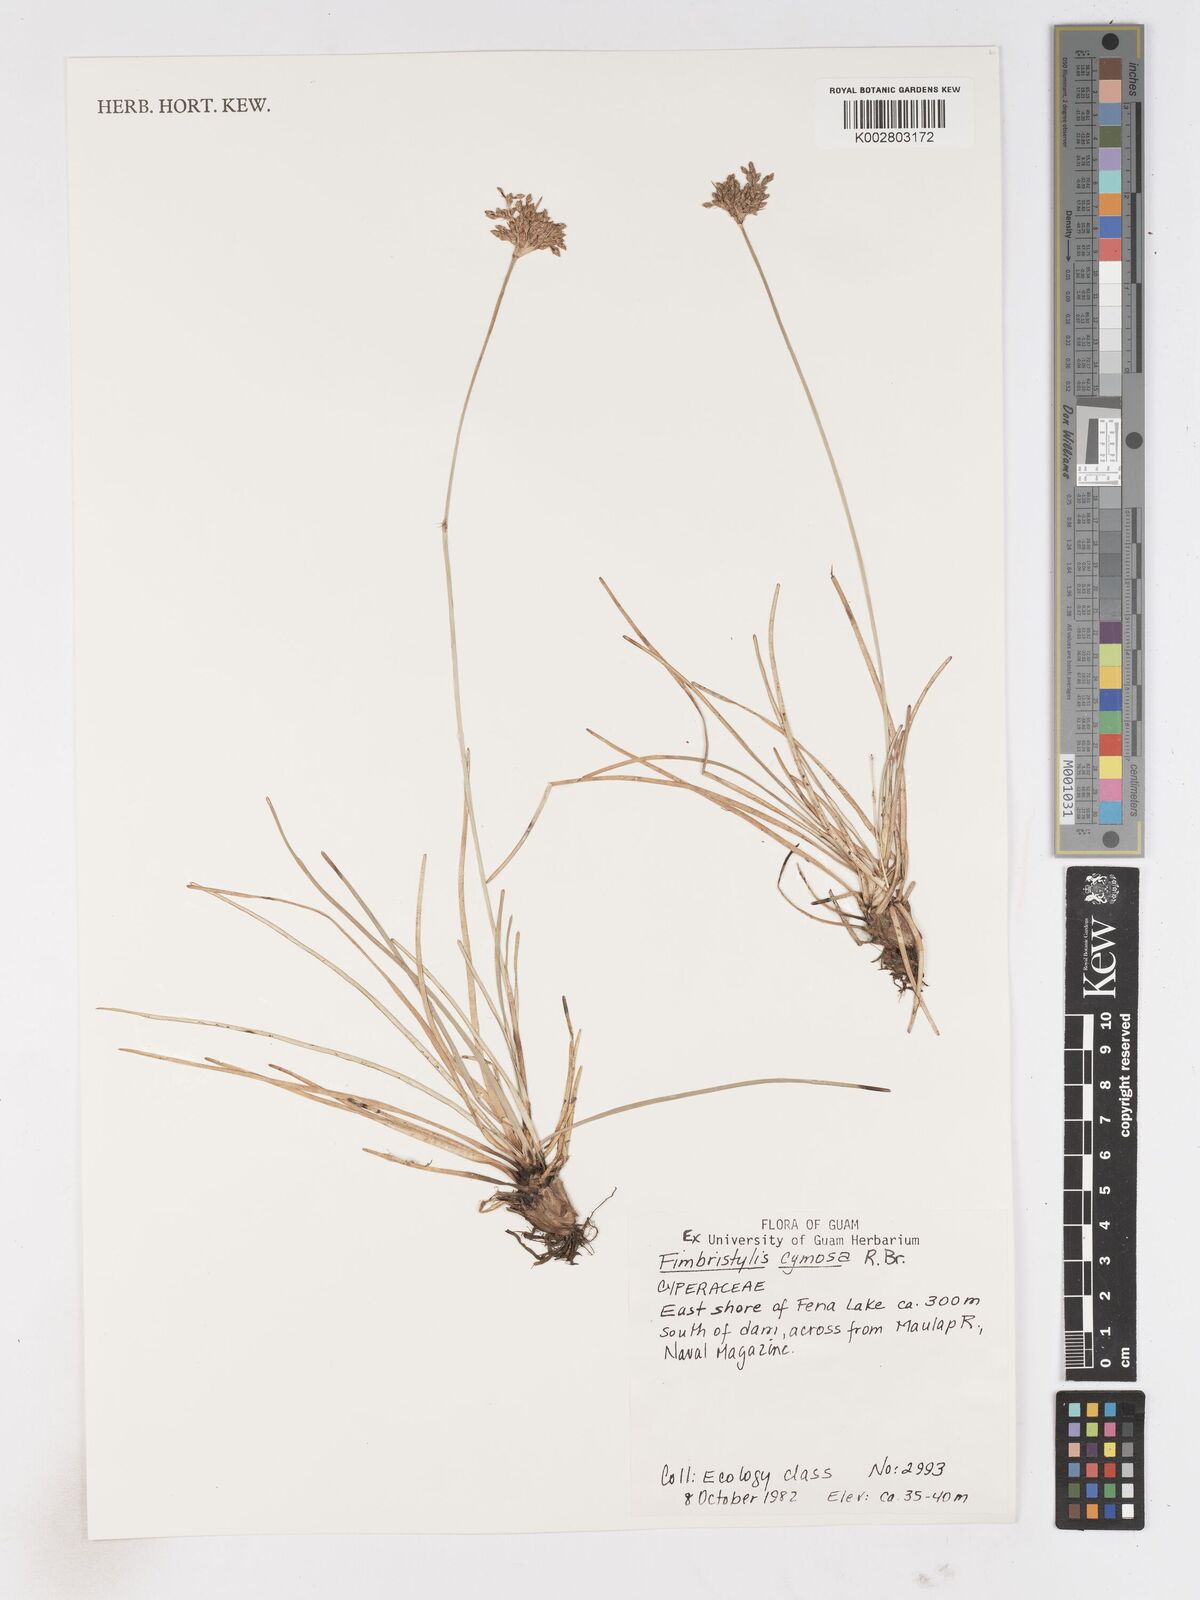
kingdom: Plantae
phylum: Tracheophyta
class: Liliopsida
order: Poales
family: Cyperaceae
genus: Fimbristylis
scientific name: Fimbristylis cymosa
